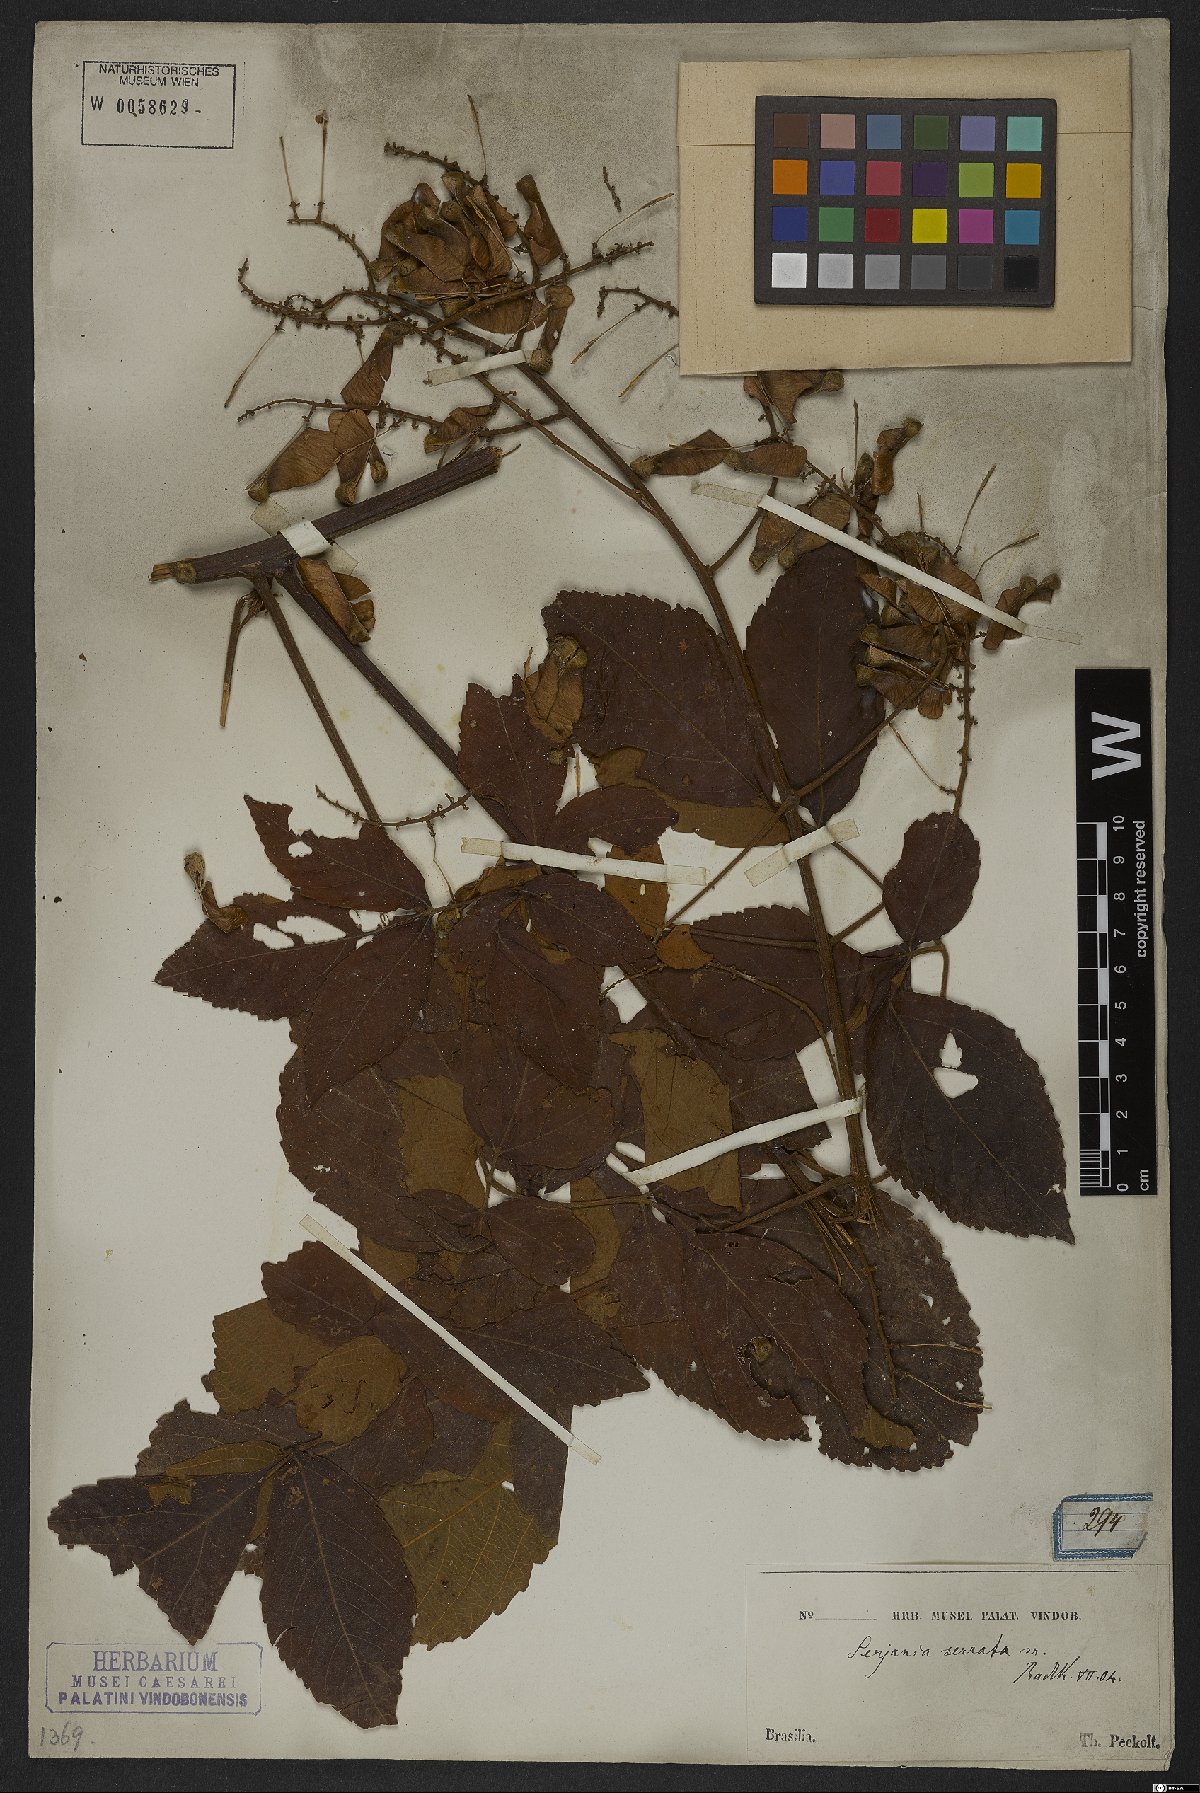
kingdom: Plantae
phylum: Tracheophyta
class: Magnoliopsida
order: Sapindales
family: Sapindaceae
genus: Serjania
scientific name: Serjania serrata
